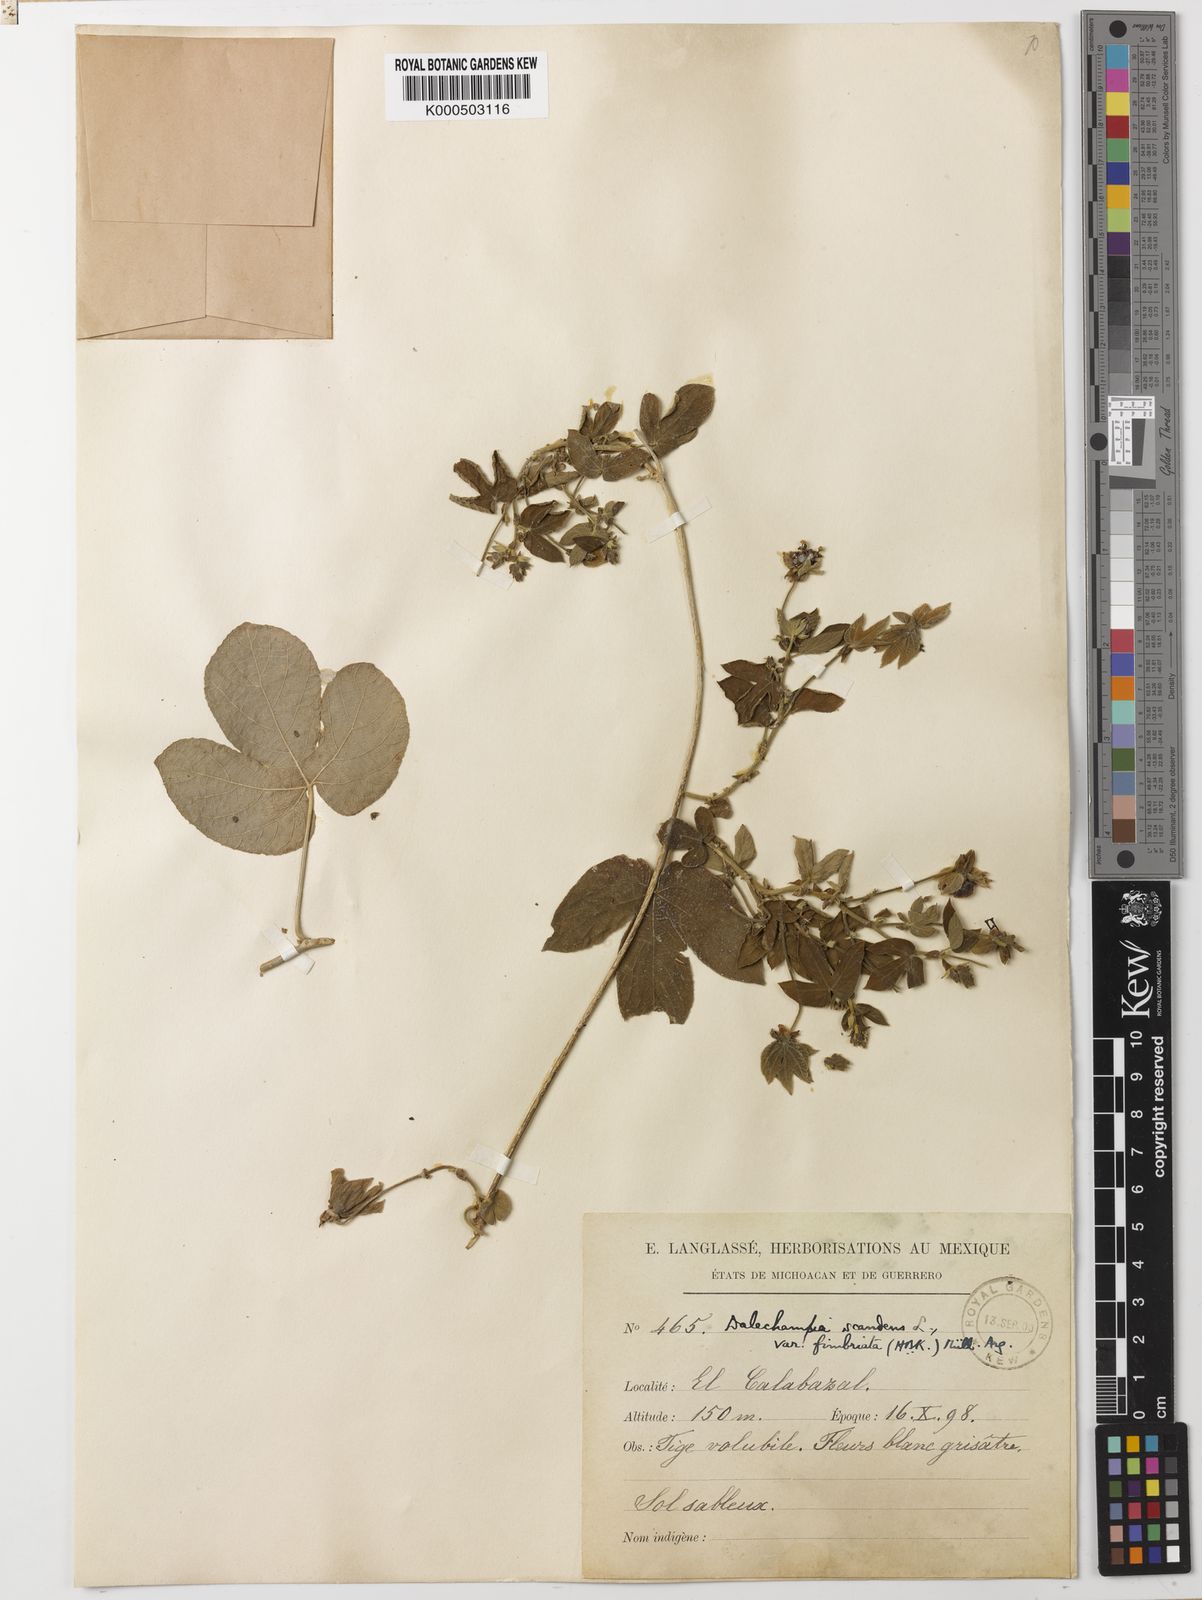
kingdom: Plantae
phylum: Tracheophyta
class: Magnoliopsida
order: Malpighiales
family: Euphorbiaceae
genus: Dalechampia
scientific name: Dalechampia scandens
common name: Spurgecreeper
